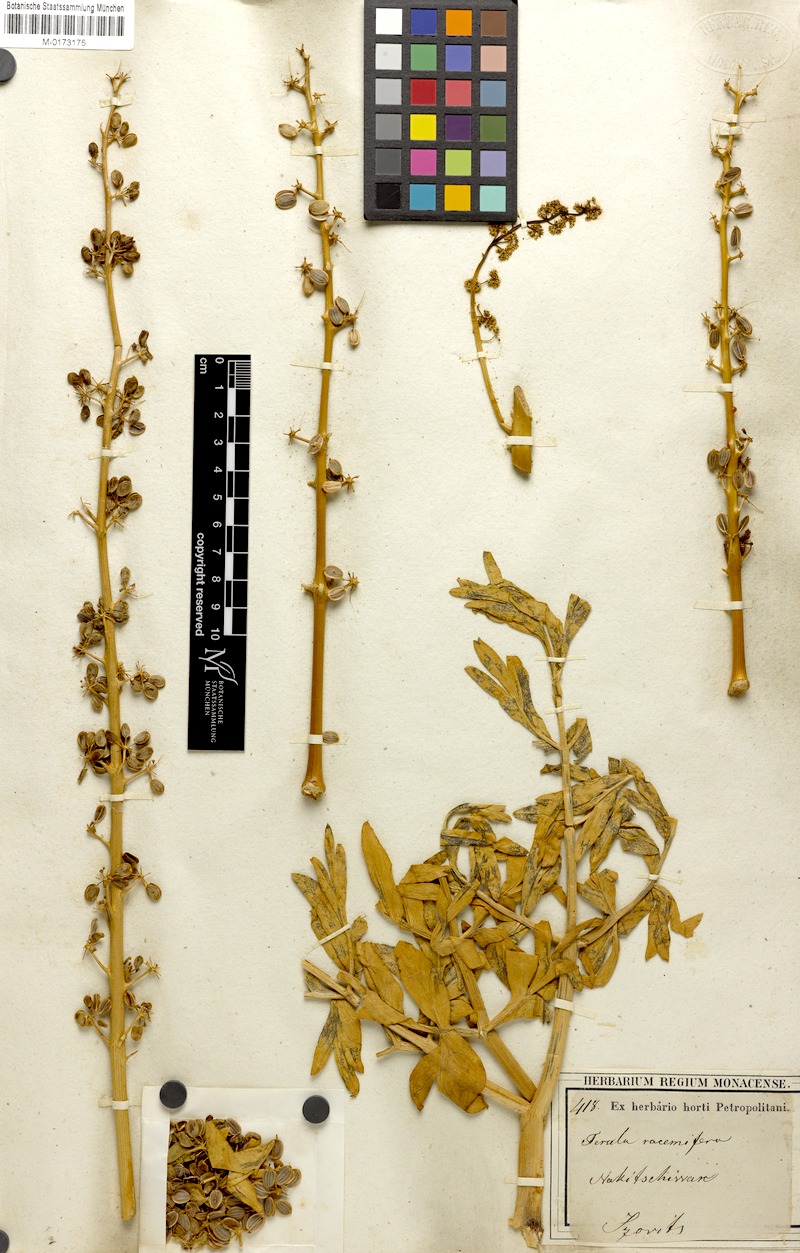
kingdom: Plantae
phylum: Tracheophyta
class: Magnoliopsida
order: Apiales
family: Apiaceae
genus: Ferula
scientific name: Ferula glabrifolia
